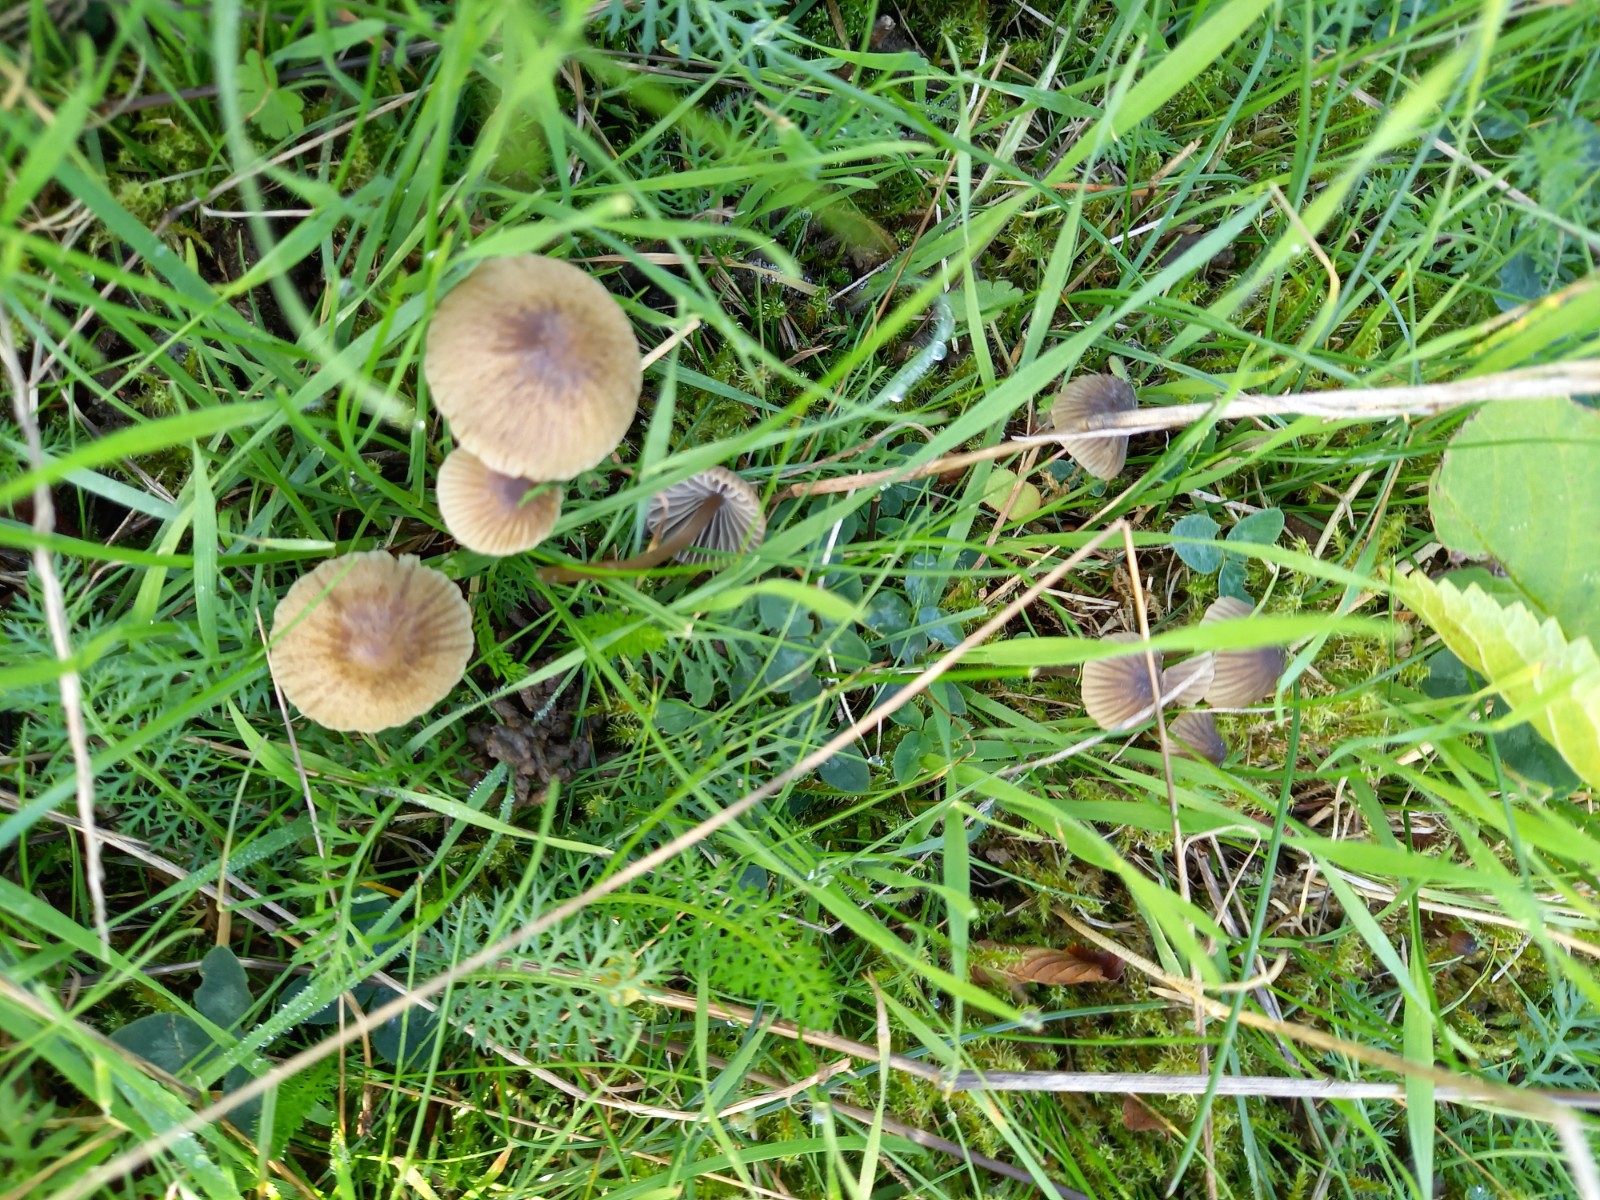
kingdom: Fungi
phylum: Basidiomycota
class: Agaricomycetes
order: Agaricales
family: Mycenaceae
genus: Mycena
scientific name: Mycena olivaceomarginata
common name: brunægget huesvamp
